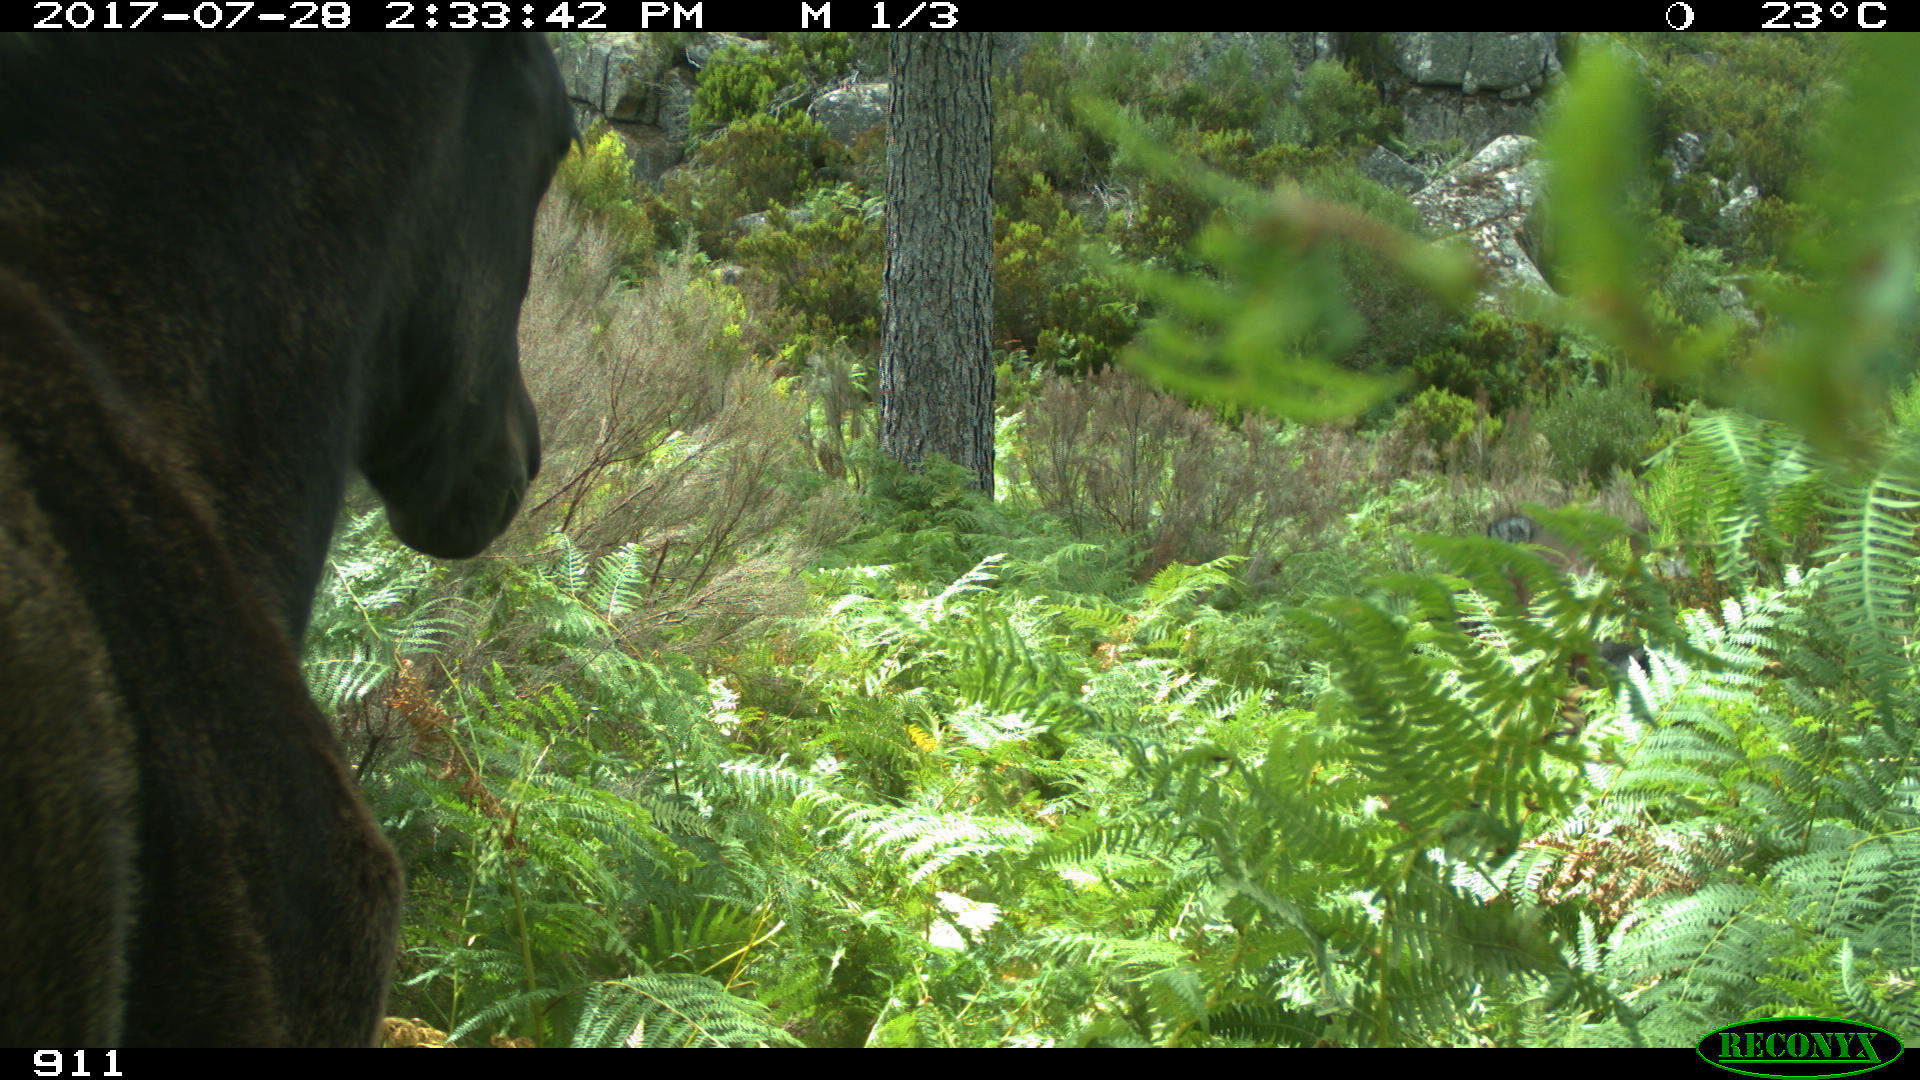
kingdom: Animalia
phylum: Chordata
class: Mammalia
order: Perissodactyla
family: Equidae
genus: Equus
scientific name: Equus caballus
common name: Horse
